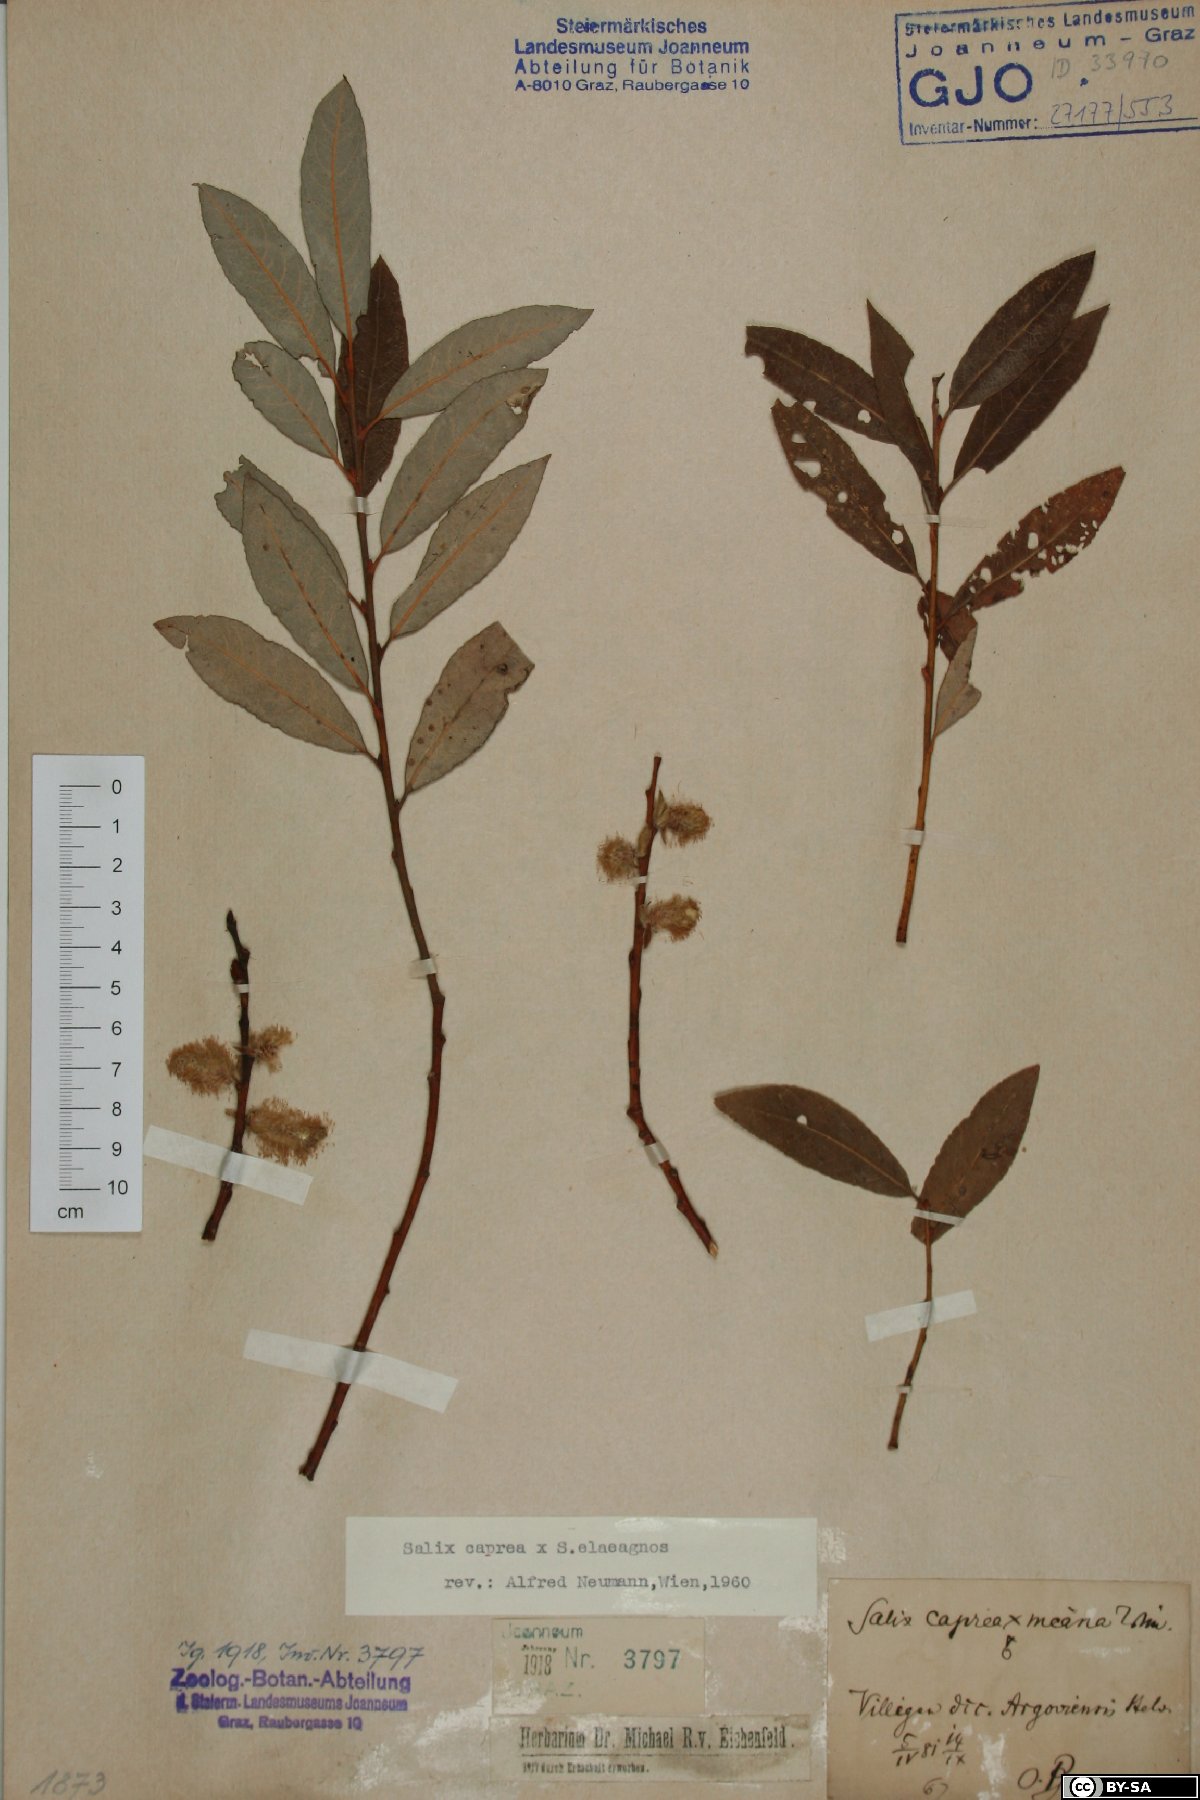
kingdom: Plantae
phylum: Tracheophyta
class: Magnoliopsida
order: Malpighiales
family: Salicaceae
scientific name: Salicaceae
